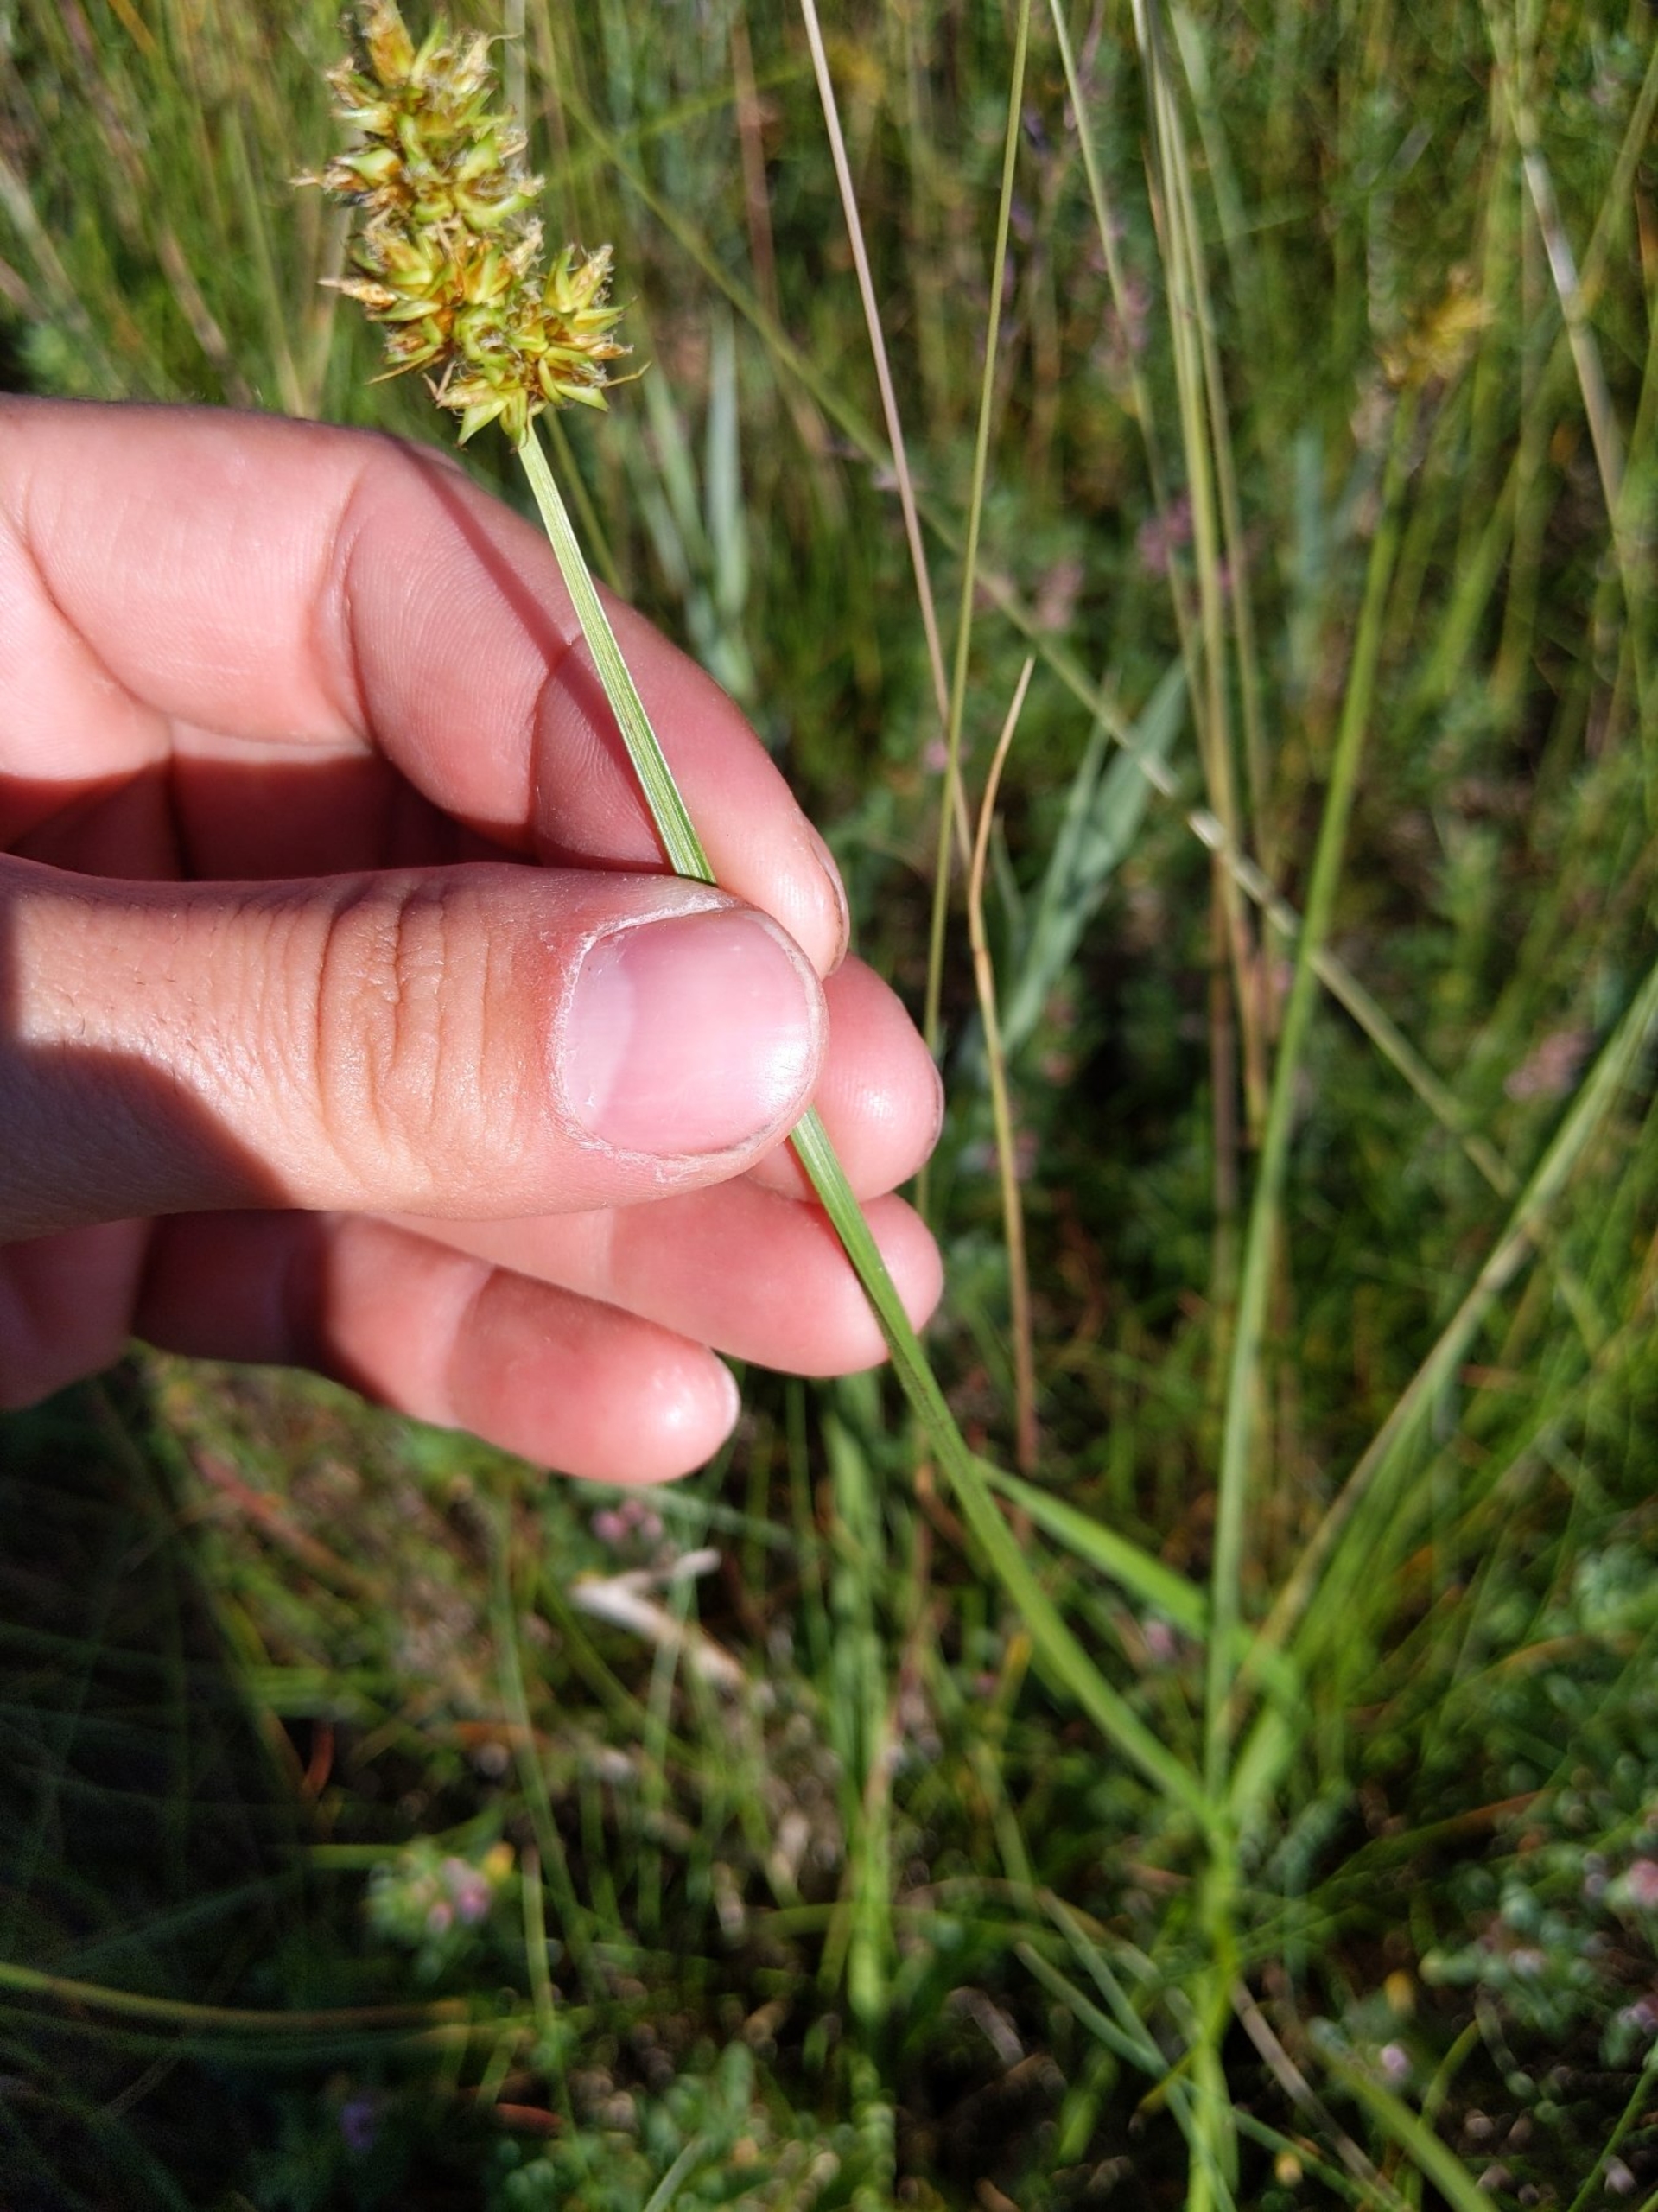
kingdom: Plantae
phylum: Tracheophyta
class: Liliopsida
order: Poales
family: Cyperaceae
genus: Carex
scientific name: Carex otrubae
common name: Sylt-star
